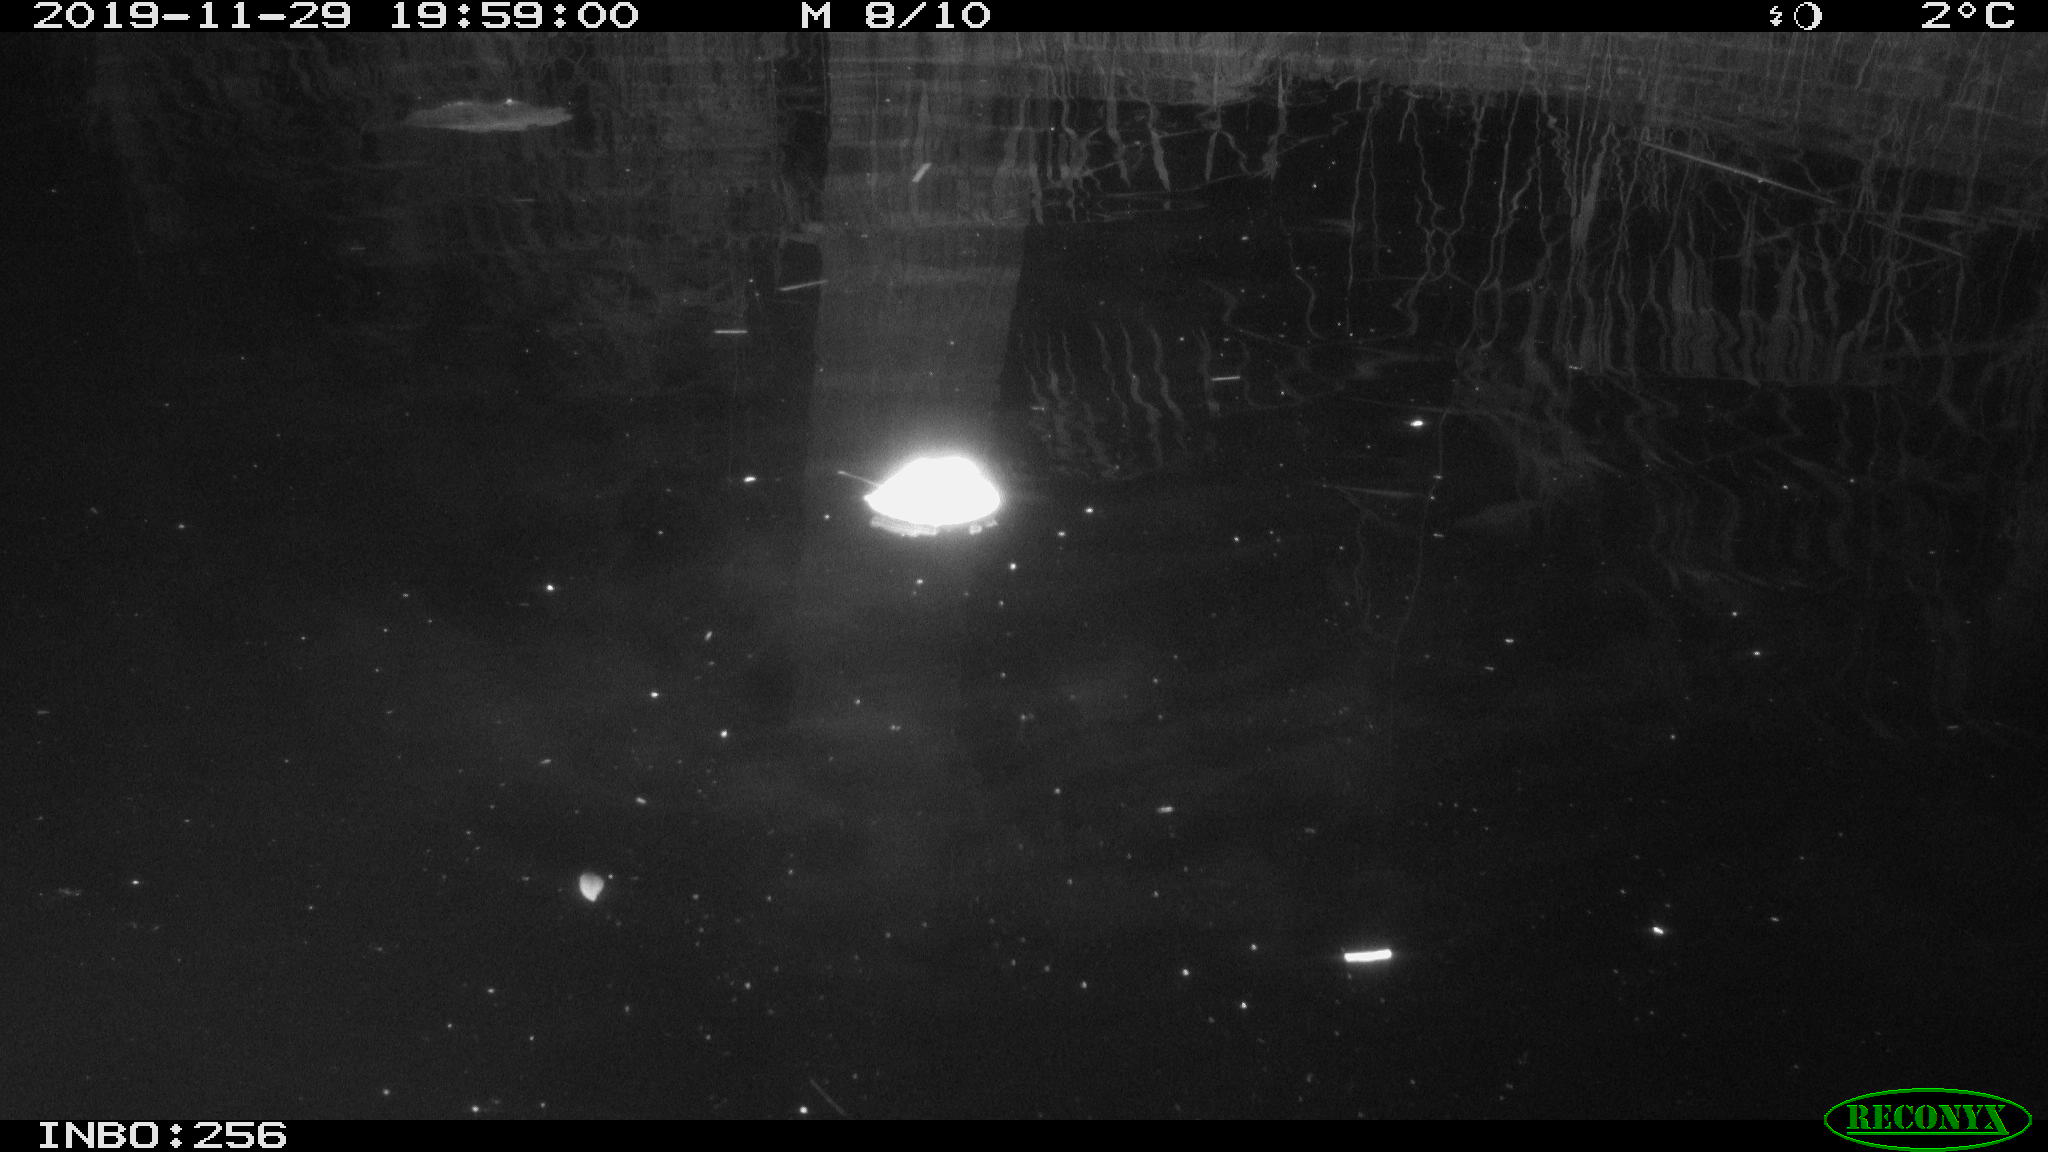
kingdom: Animalia
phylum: Chordata
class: Mammalia
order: Rodentia
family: Cricetidae
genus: Ondatra
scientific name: Ondatra zibethicus
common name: Muskrat
